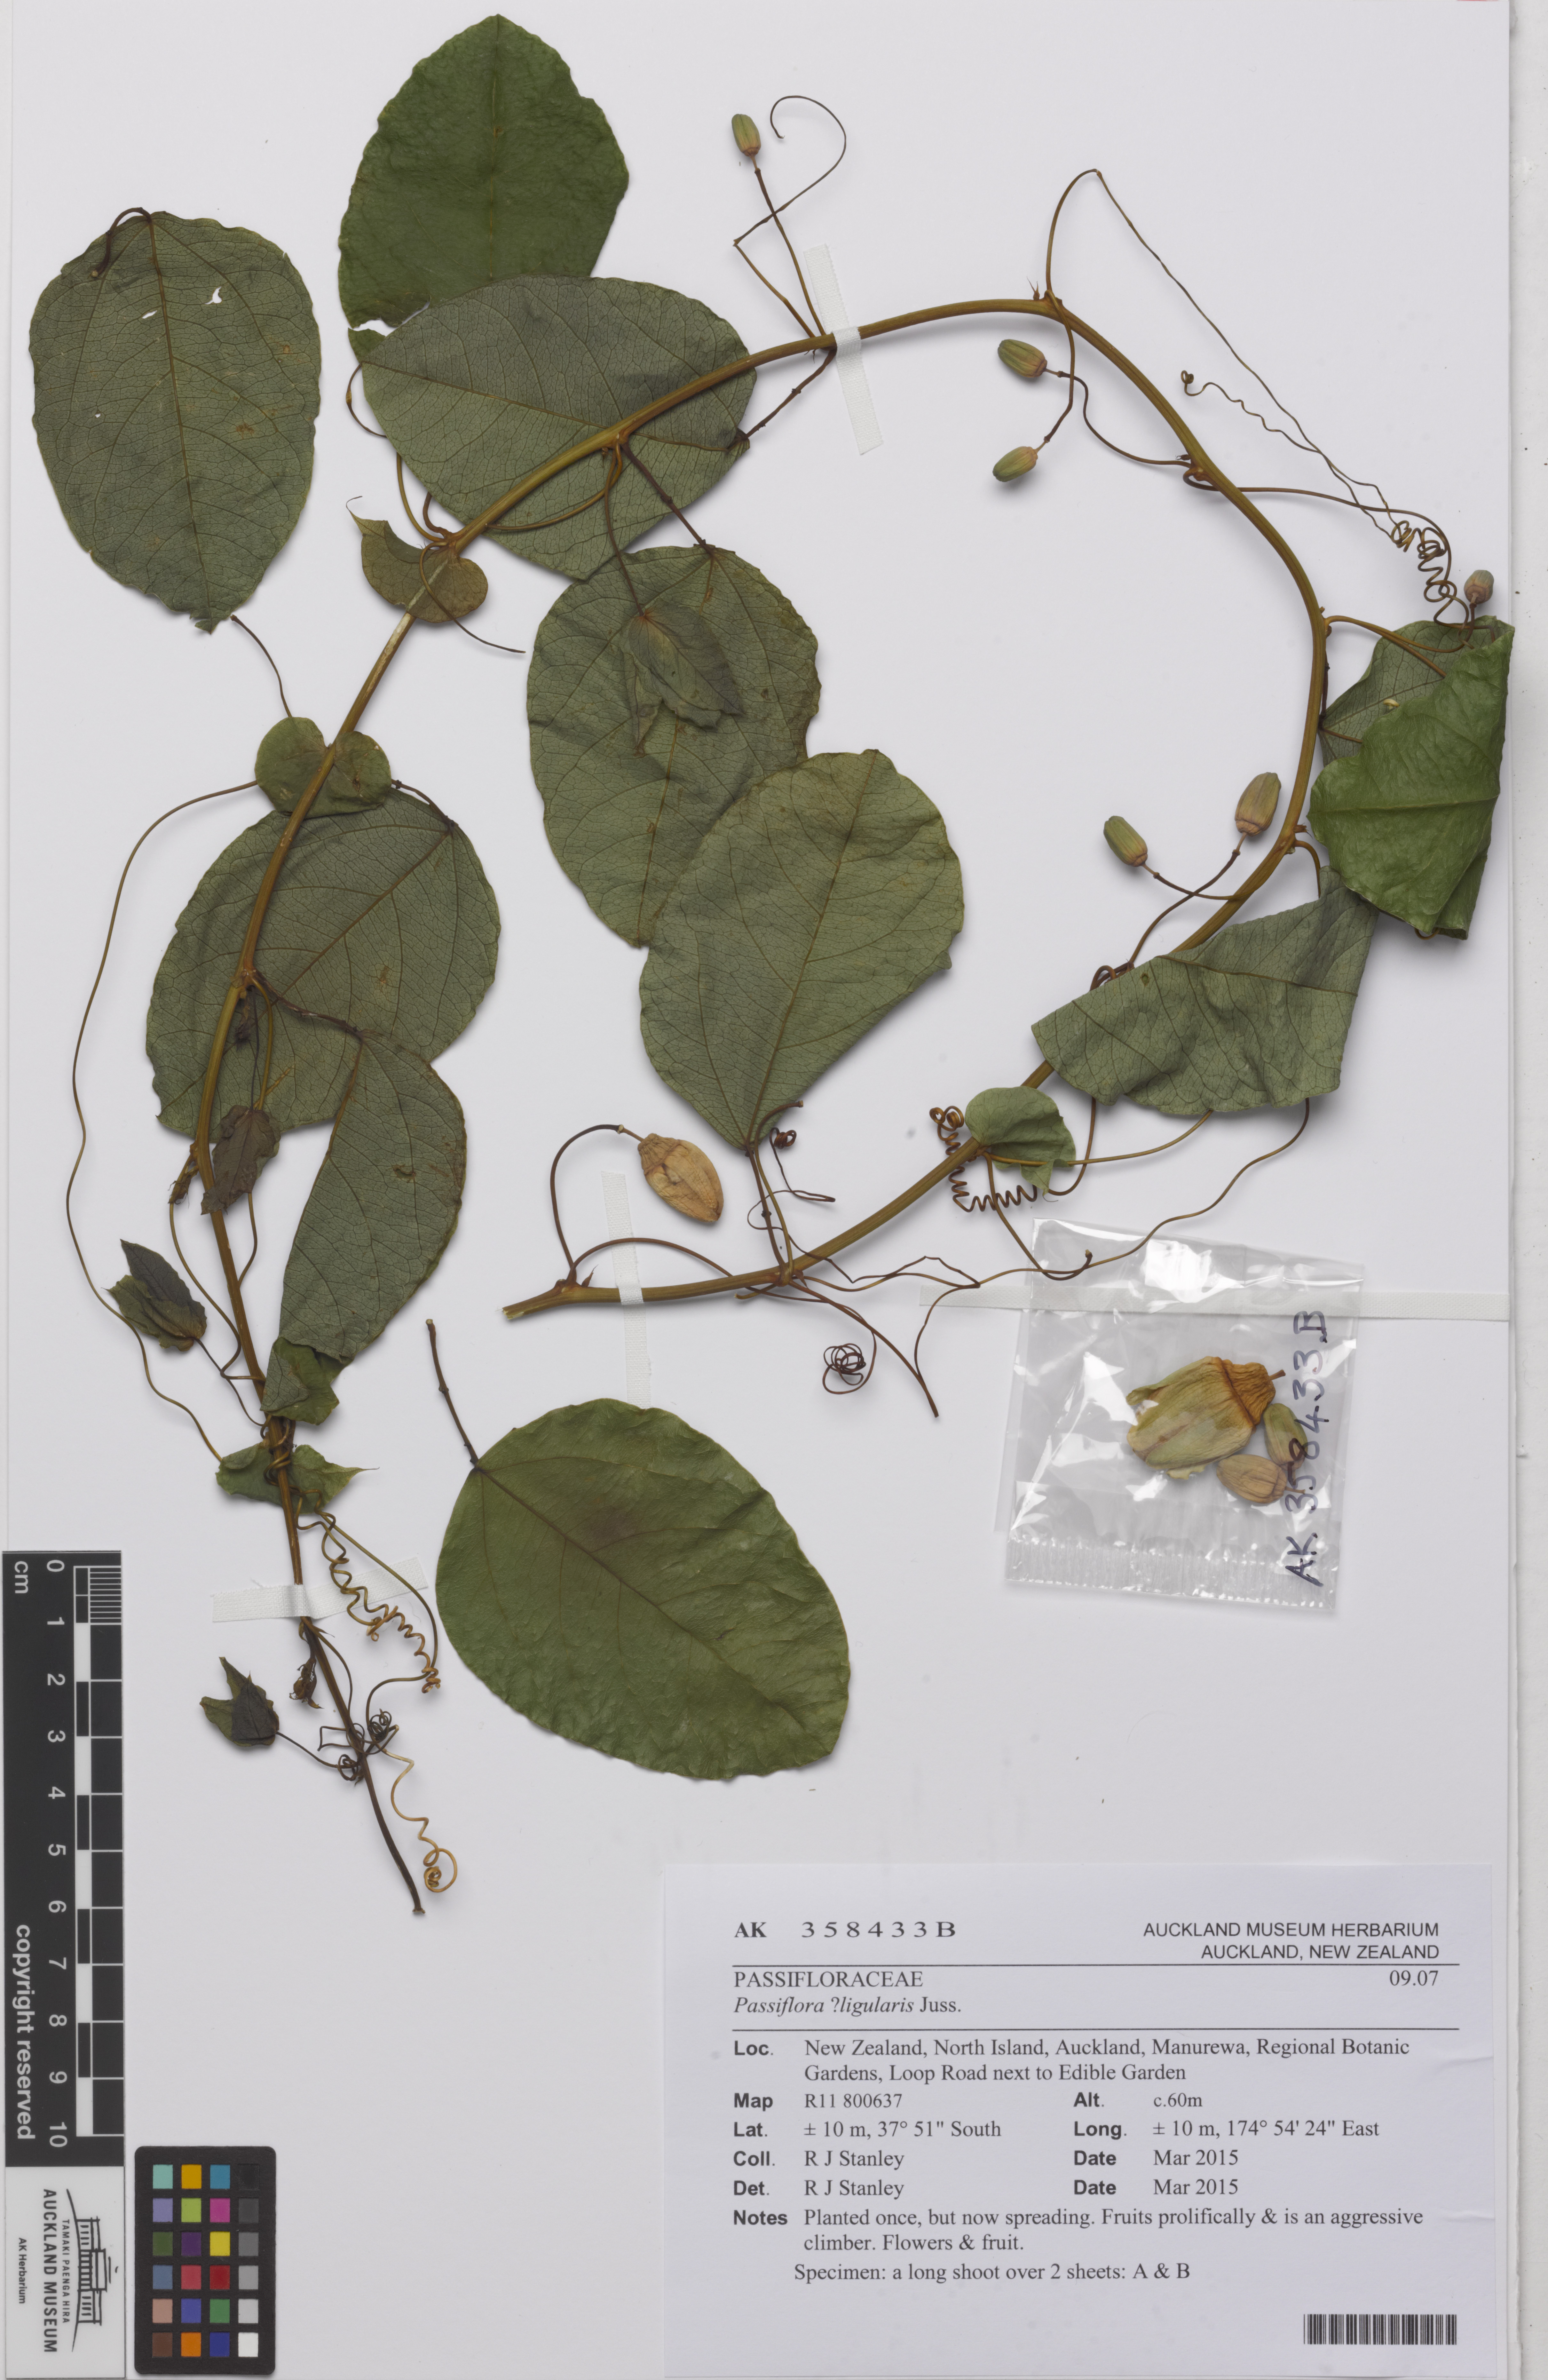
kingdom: Plantae
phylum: Tracheophyta
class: Magnoliopsida
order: Malpighiales
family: Passifloraceae
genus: Passiflora
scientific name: Passiflora ligularis
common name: Sweet granadilla
